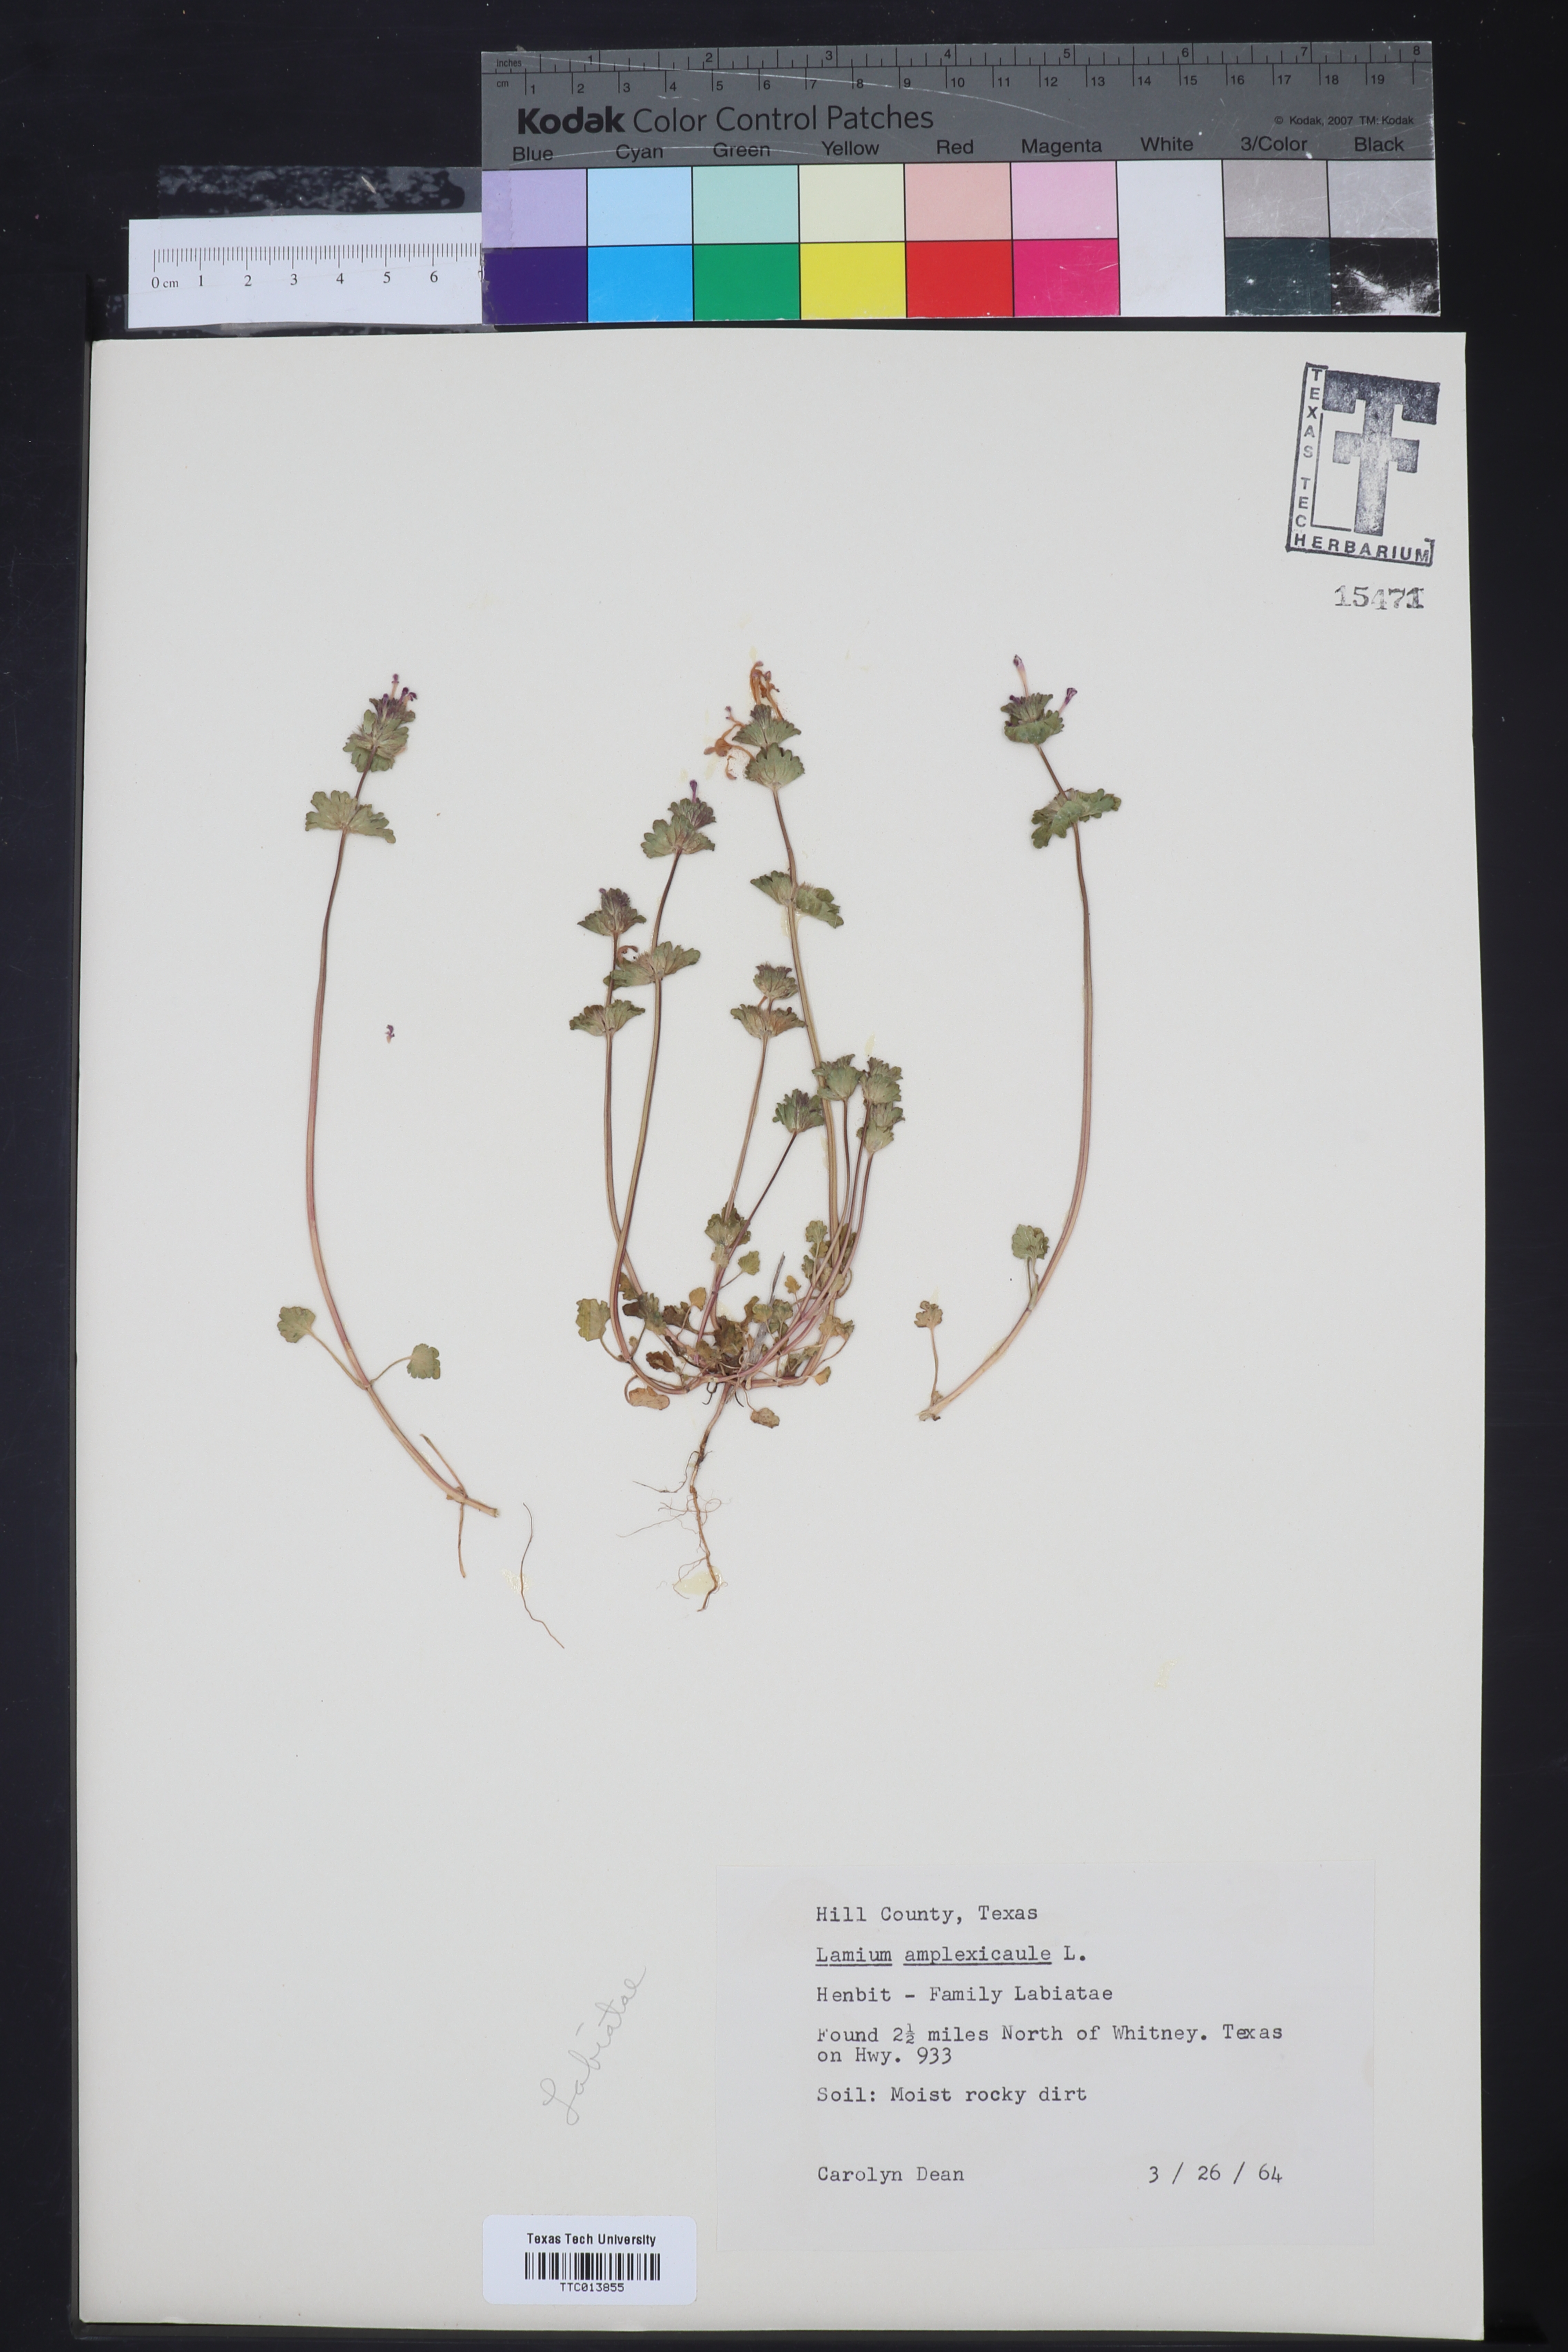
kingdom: Plantae
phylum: Tracheophyta
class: Magnoliopsida
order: Lamiales
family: Lamiaceae
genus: Lamium
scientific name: Lamium amplexicaule
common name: Henbit dead-nettle
